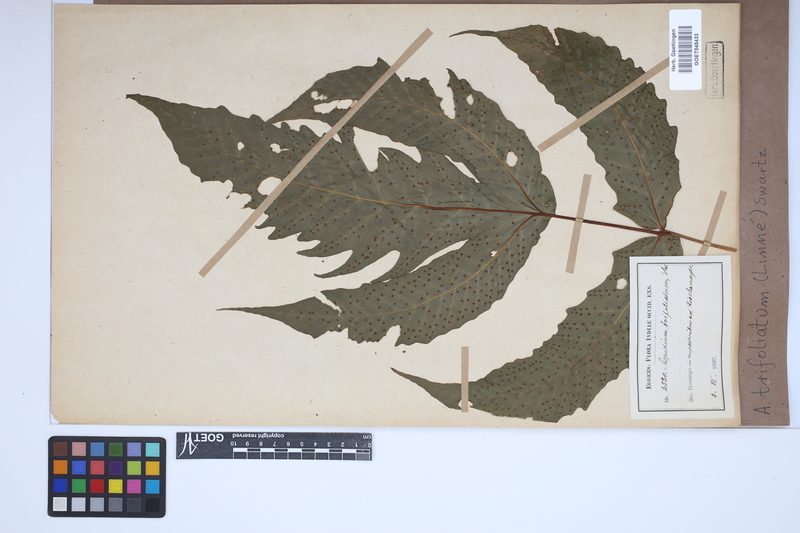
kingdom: Plantae
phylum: Tracheophyta
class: Polypodiopsida
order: Polypodiales
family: Tectariaceae
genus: Tectaria
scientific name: Tectaria trifoliata
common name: Threeleaf halberd fern
